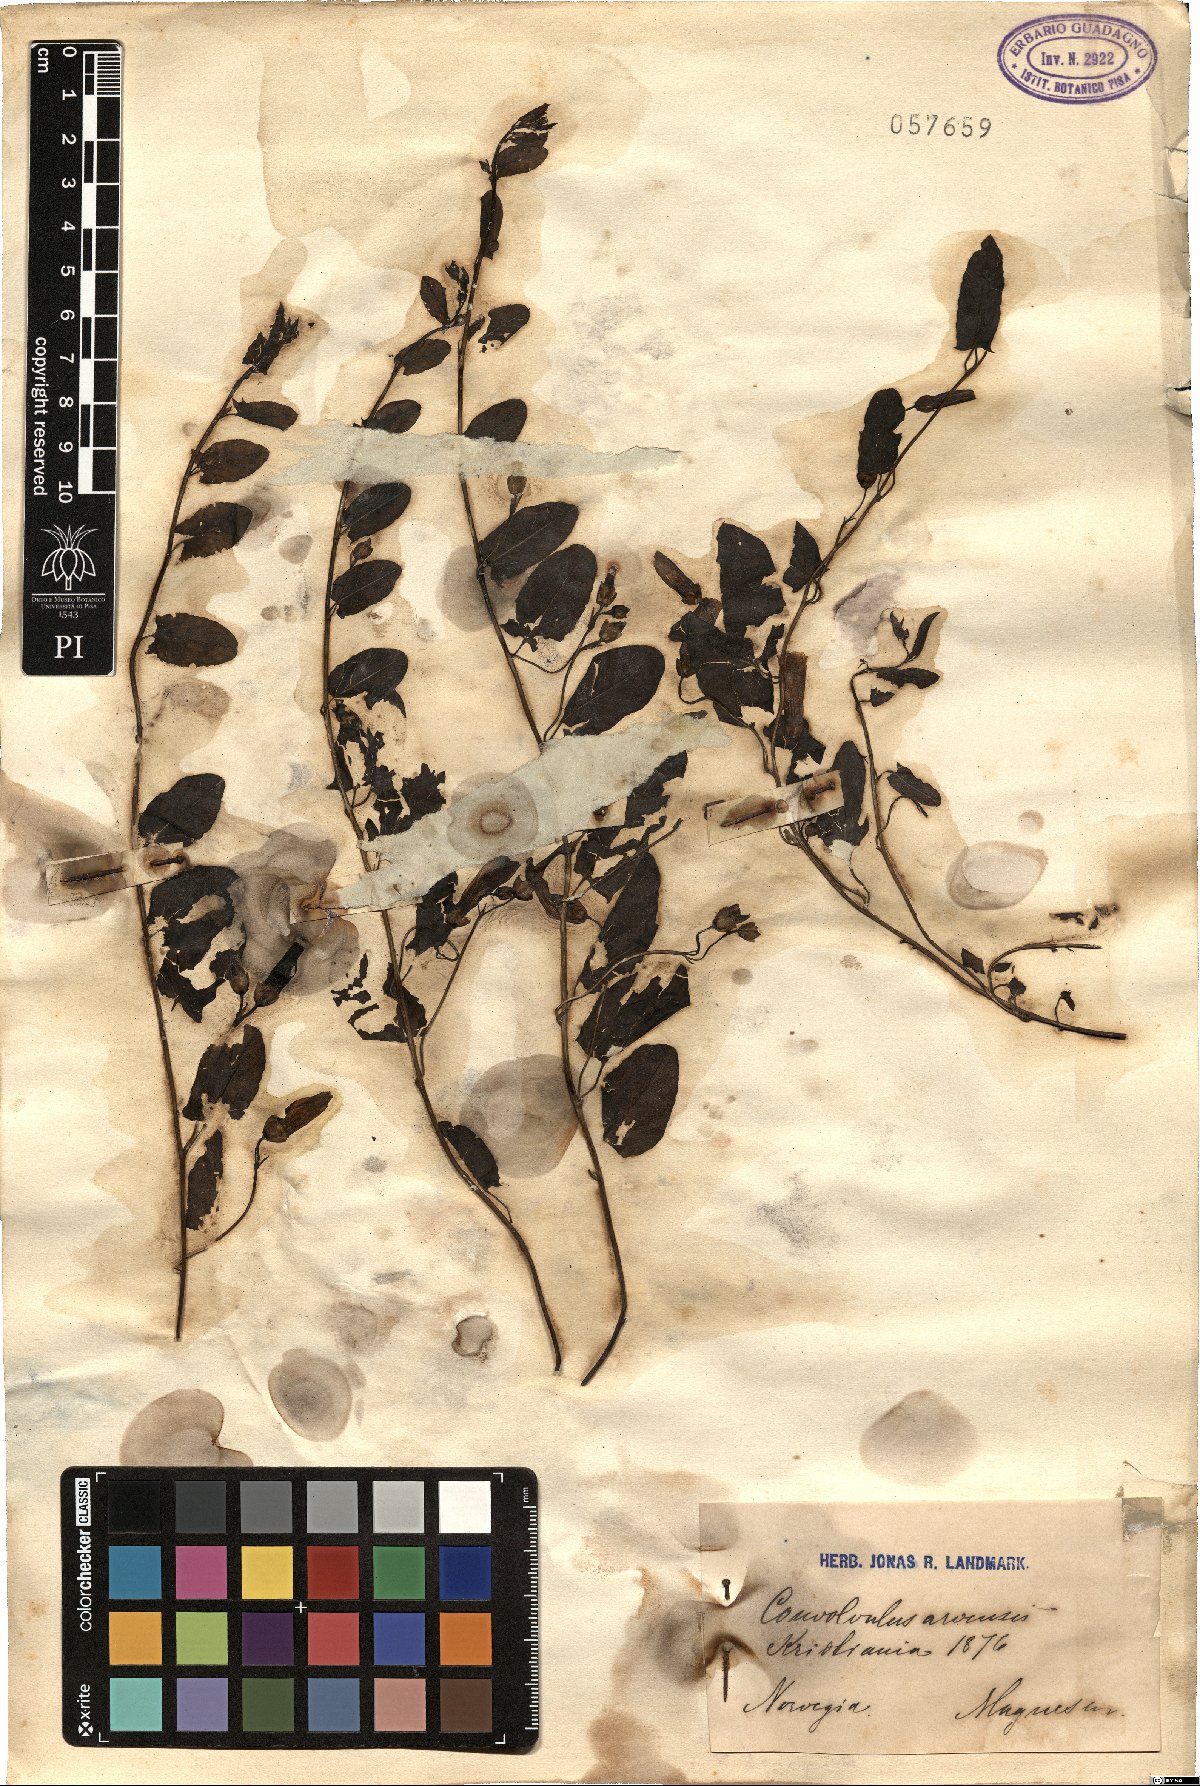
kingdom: Plantae
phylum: Tracheophyta
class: Magnoliopsida
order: Solanales
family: Convolvulaceae
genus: Convolvulus
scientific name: Convolvulus arvensis
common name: Field bindweed
